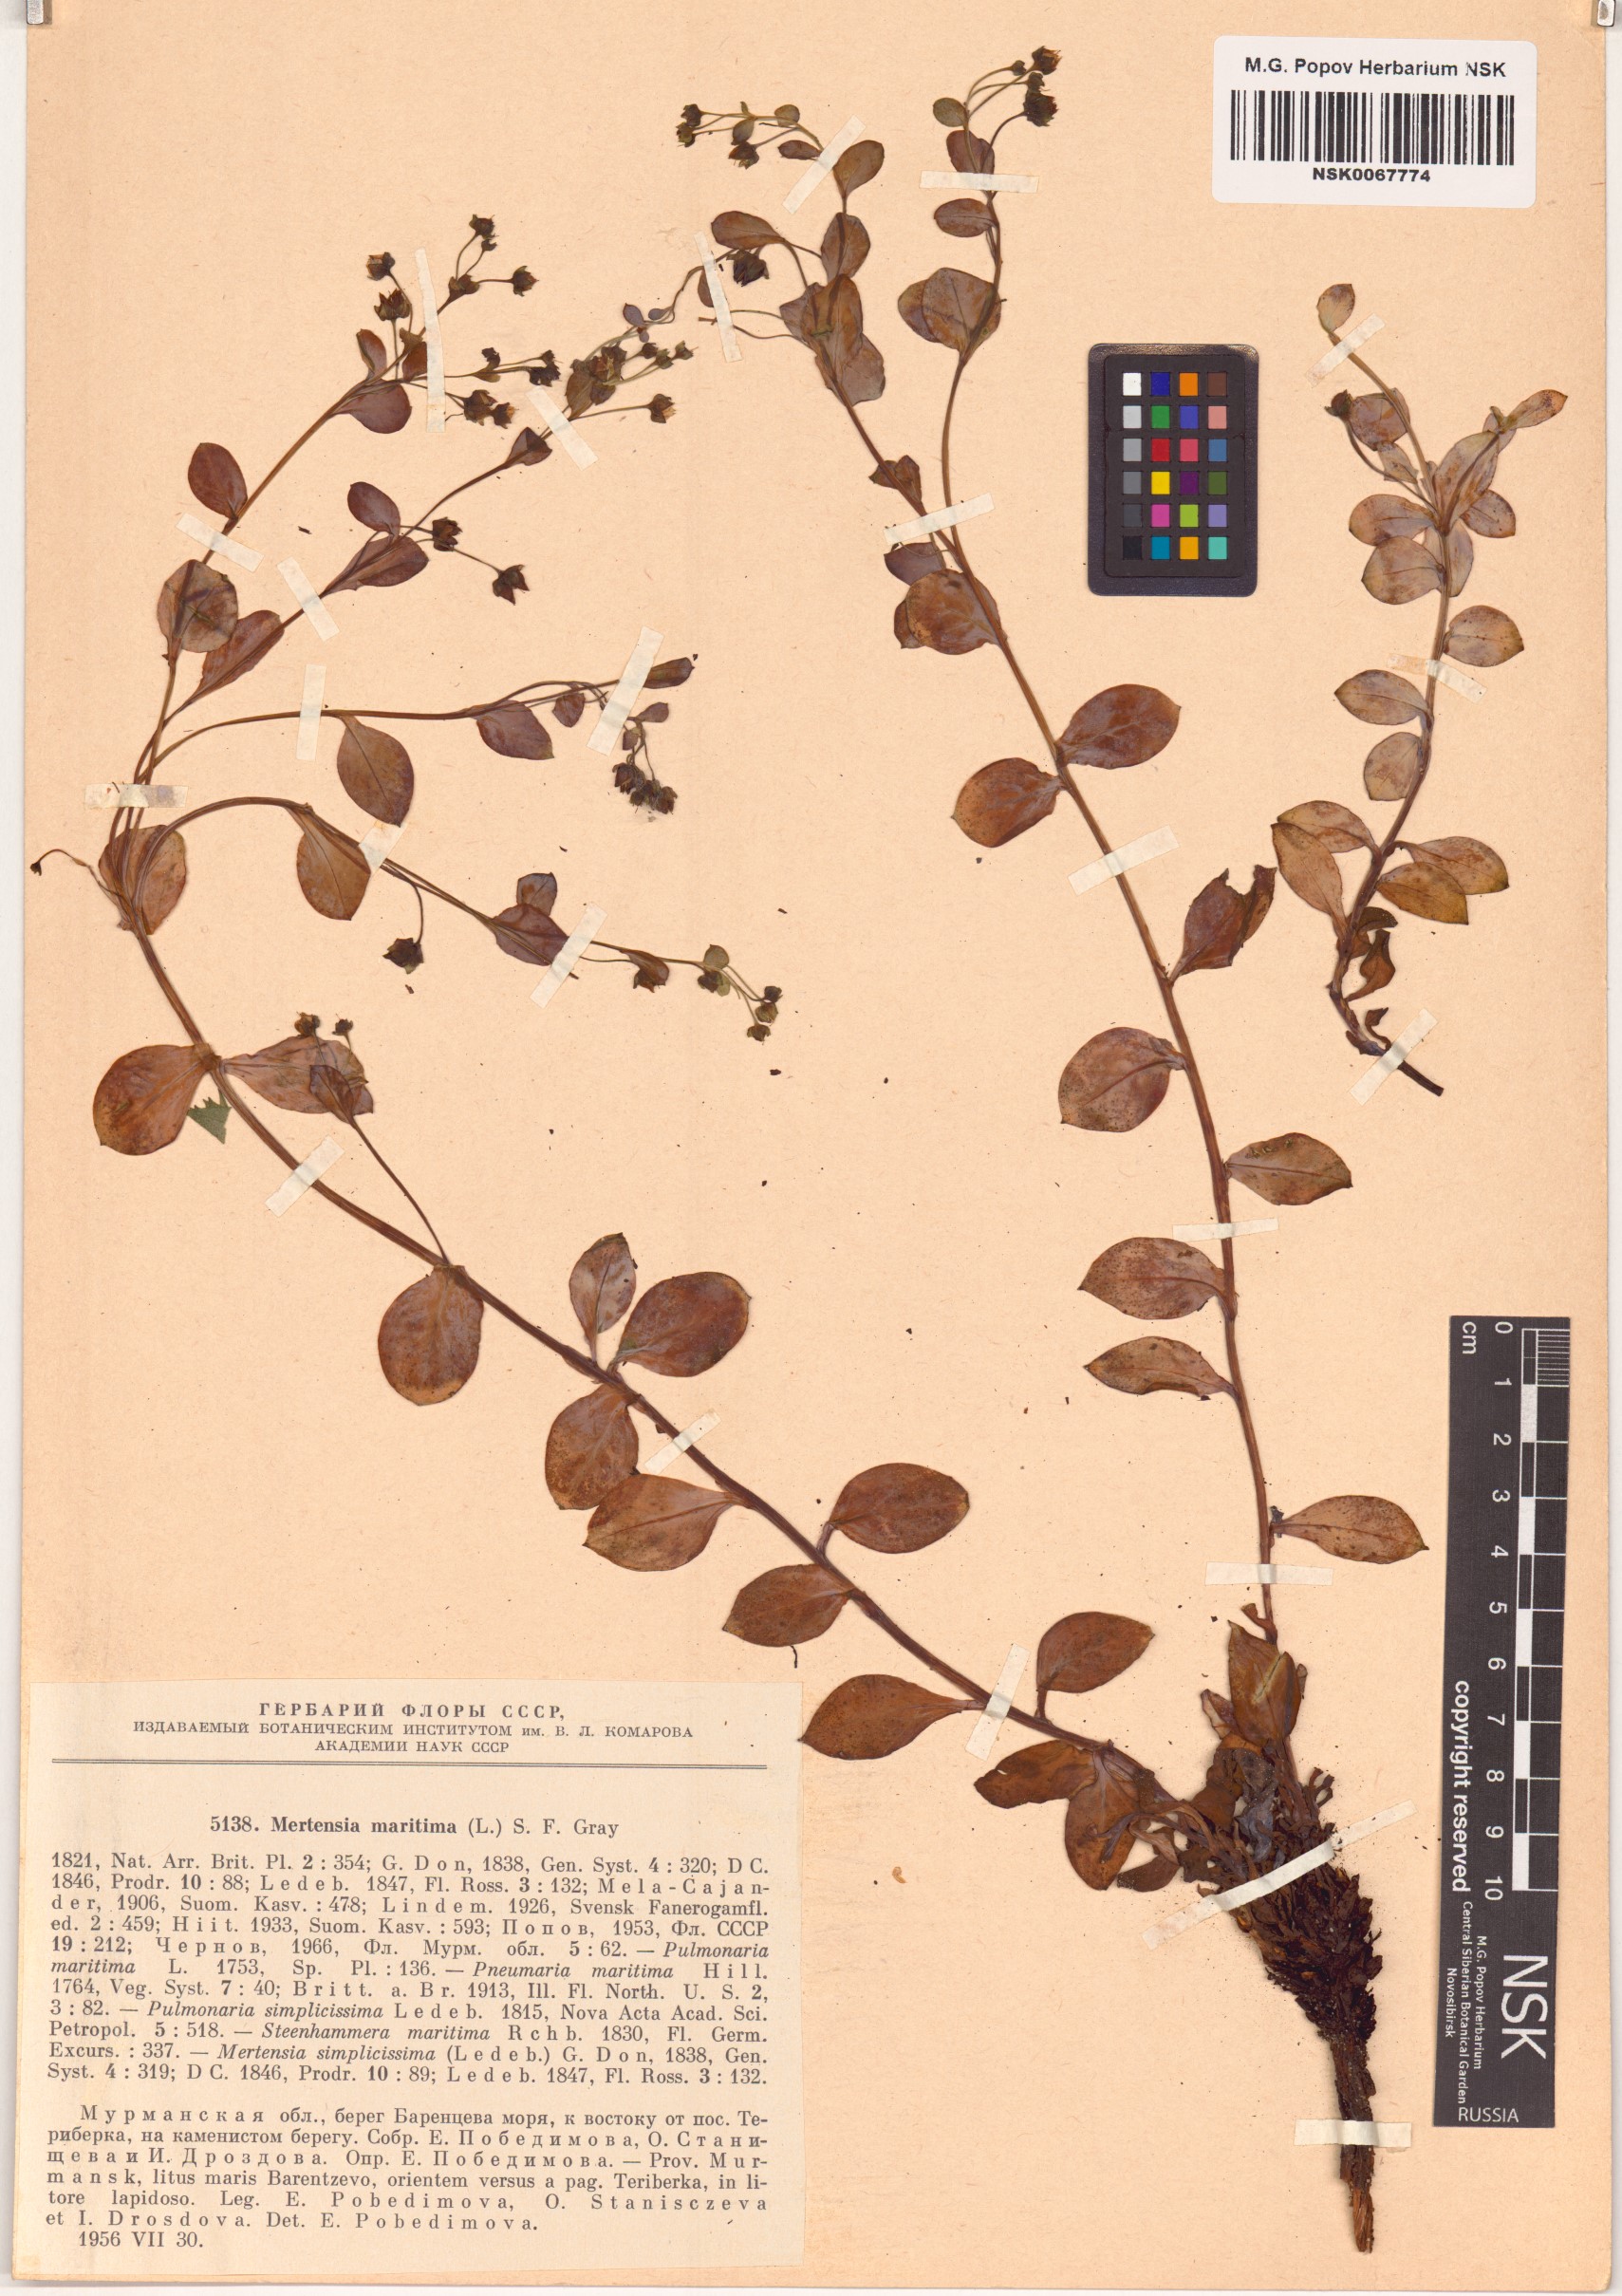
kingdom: Plantae
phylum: Tracheophyta
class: Magnoliopsida
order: Boraginales
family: Boraginaceae
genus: Mertensia
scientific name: Mertensia maritima
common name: Oysterplant
